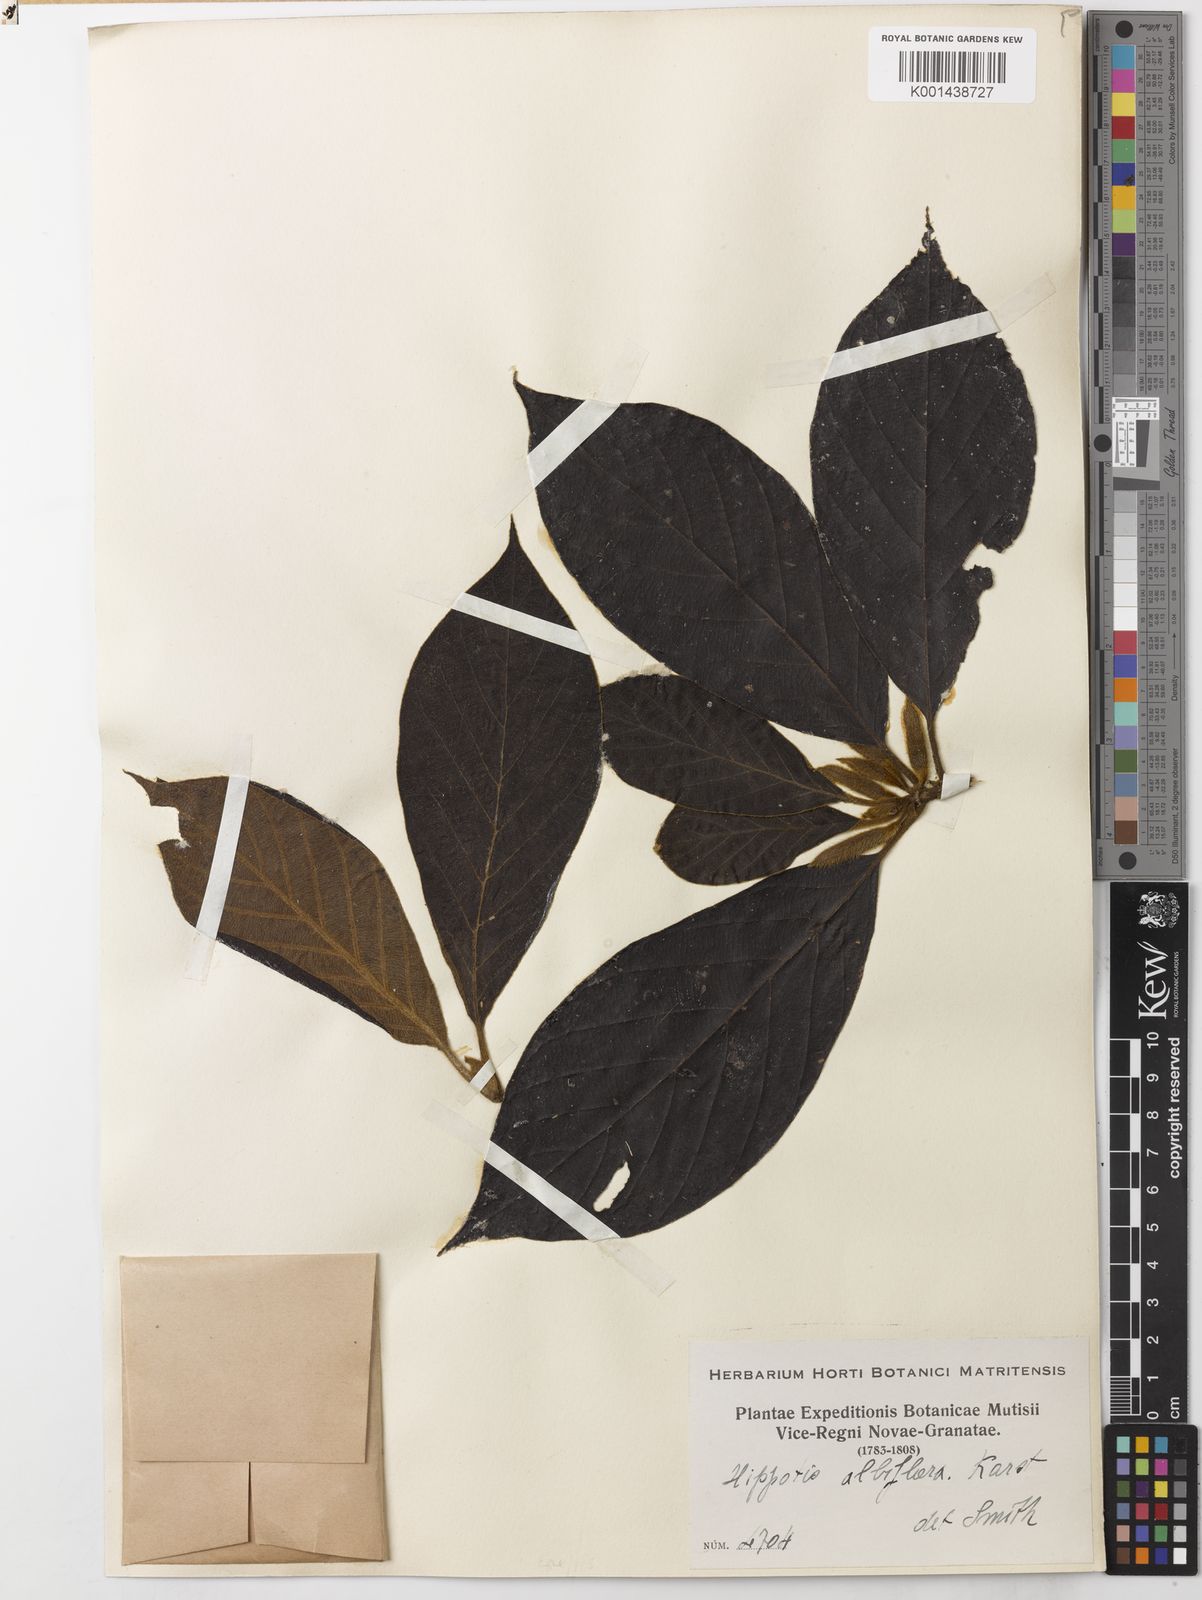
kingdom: Plantae
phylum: Tracheophyta
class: Magnoliopsida
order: Gentianales
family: Rubiaceae
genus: Hippotis
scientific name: Hippotis albiflora
